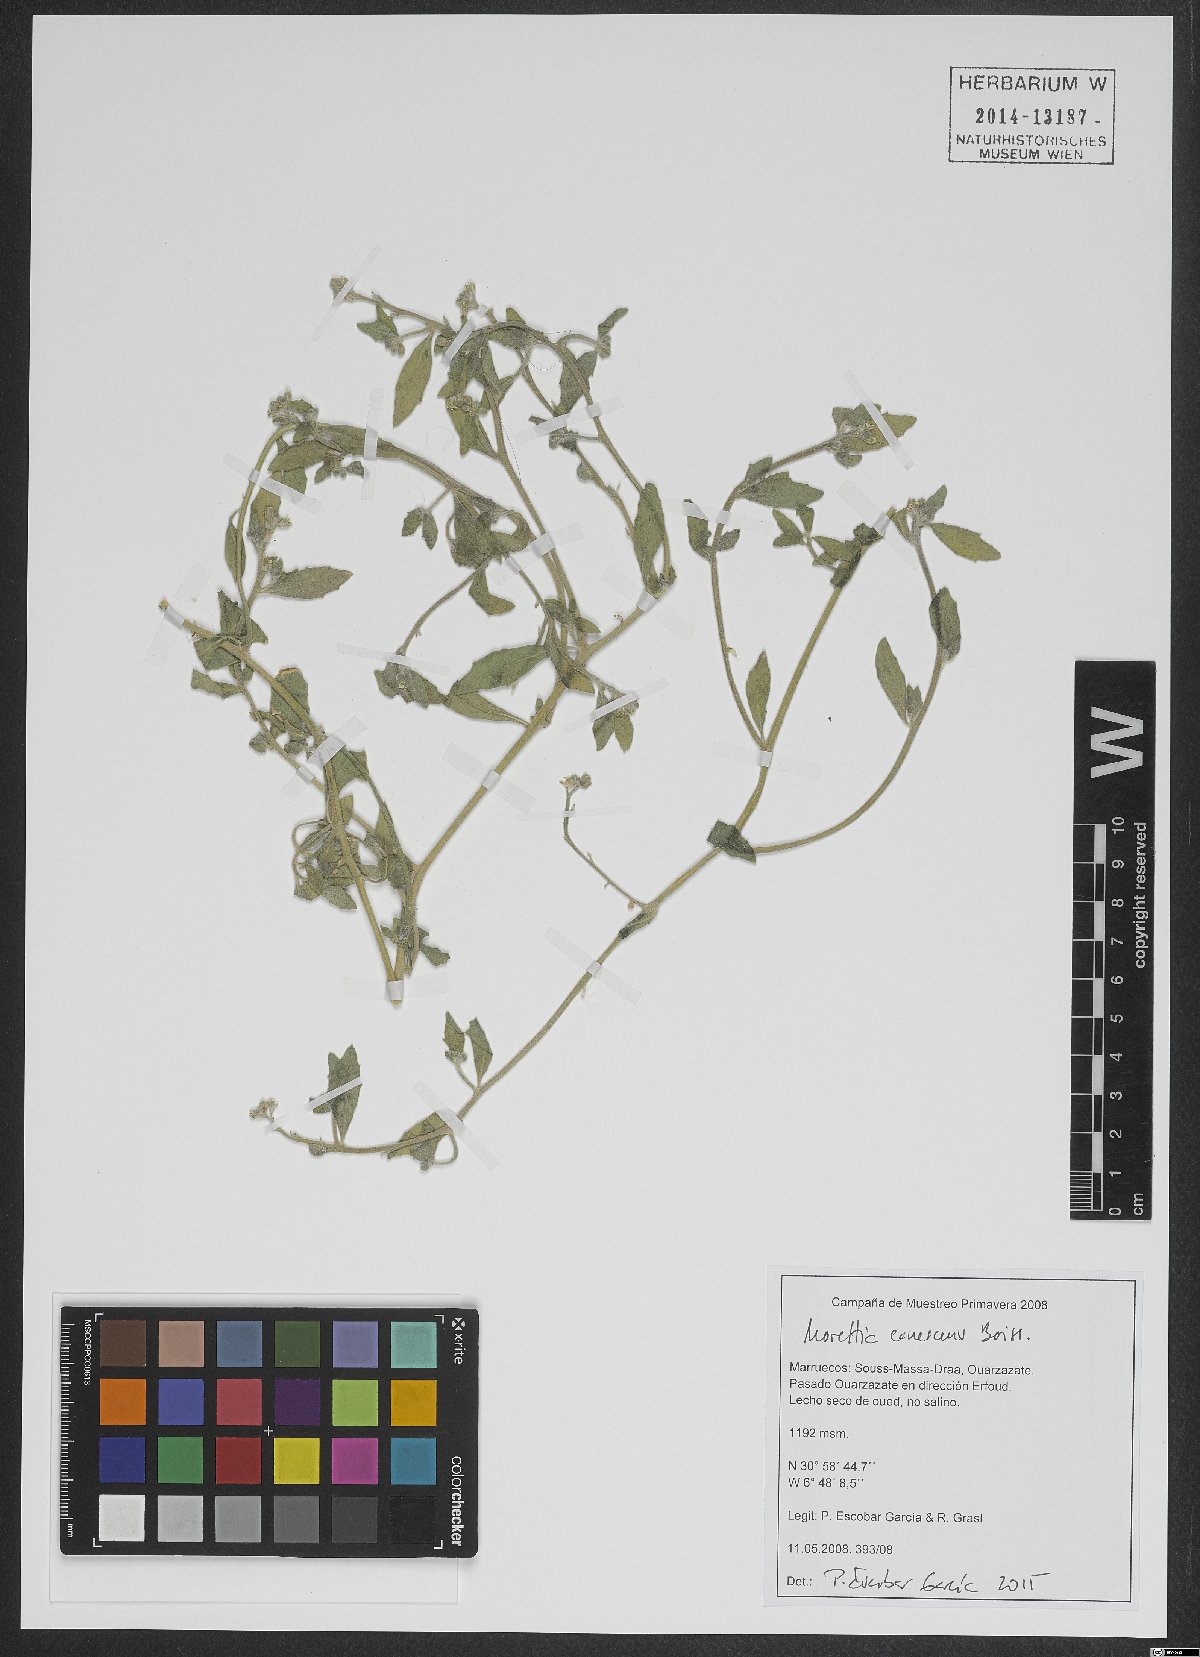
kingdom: Plantae
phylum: Tracheophyta
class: Magnoliopsida
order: Brassicales
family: Brassicaceae
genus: Morettia
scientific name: Morettia canescens
